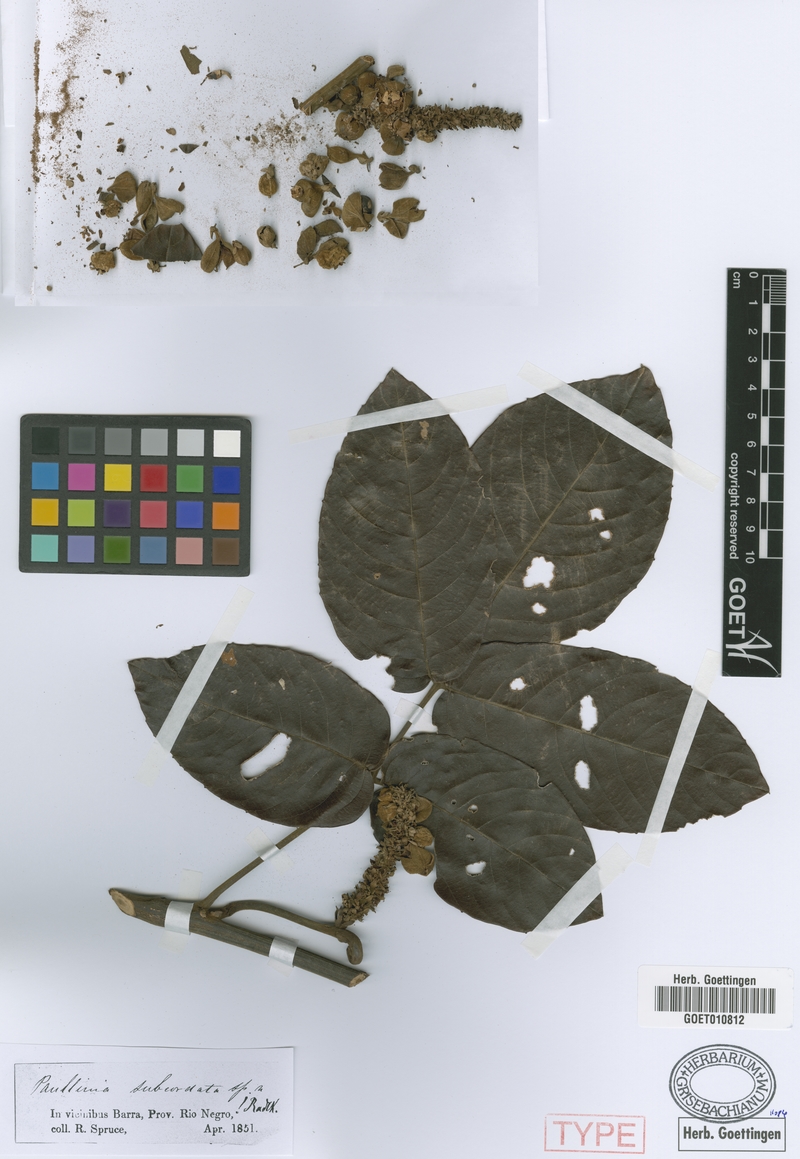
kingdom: Plantae
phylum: Tracheophyta
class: Magnoliopsida
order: Sapindales
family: Sapindaceae
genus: Paullinia
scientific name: Paullinia rugosa
